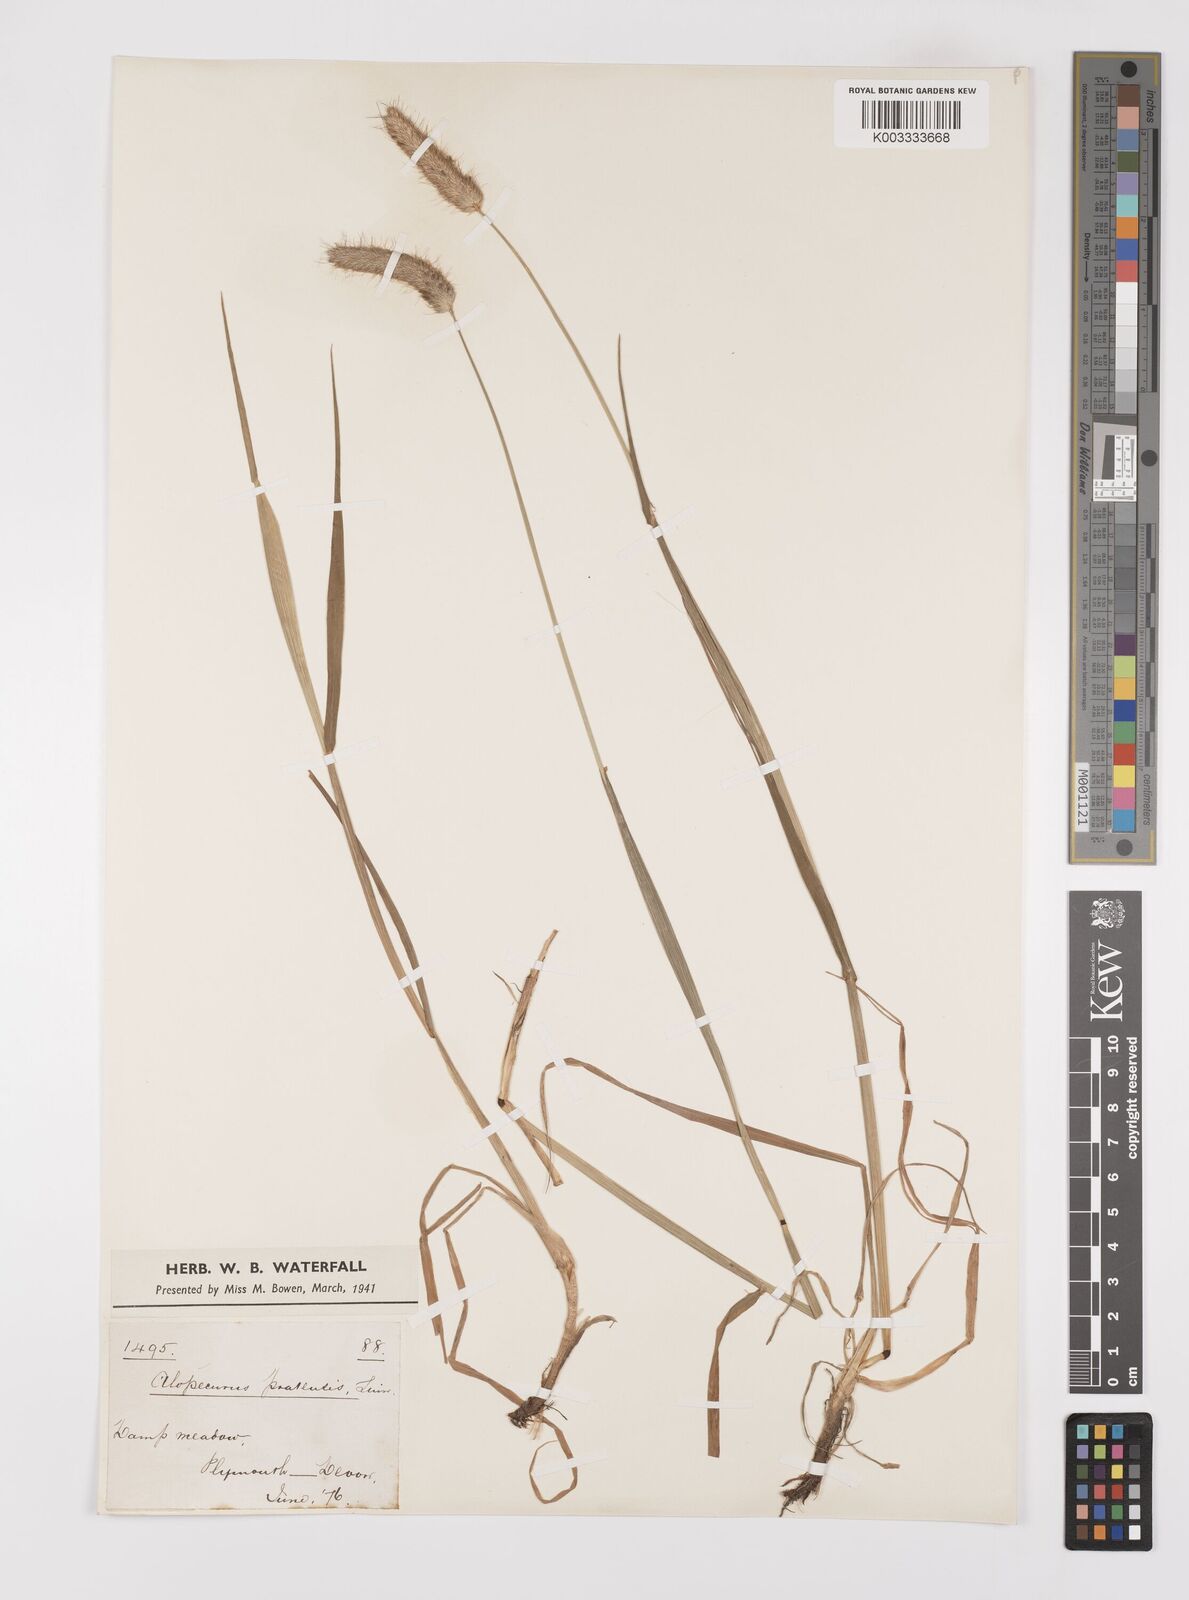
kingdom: Plantae
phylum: Tracheophyta
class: Liliopsida
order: Poales
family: Poaceae
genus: Alopecurus
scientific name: Alopecurus pratensis
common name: Meadow foxtail
